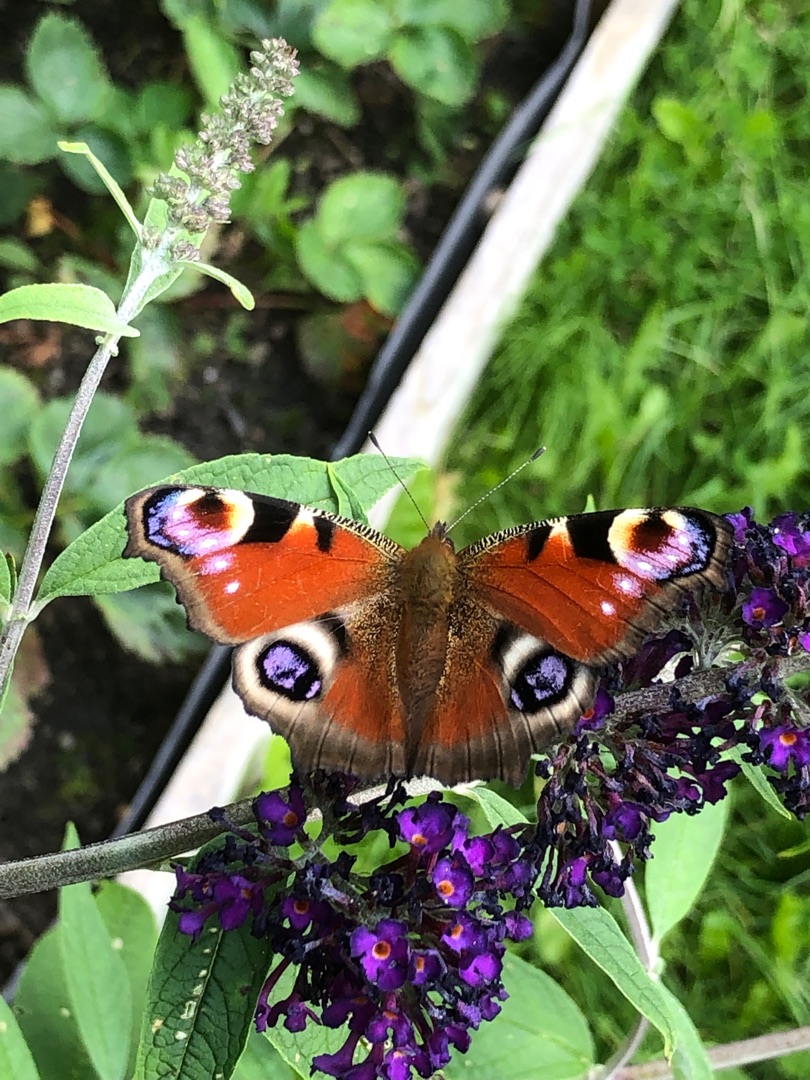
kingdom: Animalia
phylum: Arthropoda
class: Insecta
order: Lepidoptera
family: Nymphalidae
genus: Aglais
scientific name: Aglais io
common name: Dagpåfugleøje
